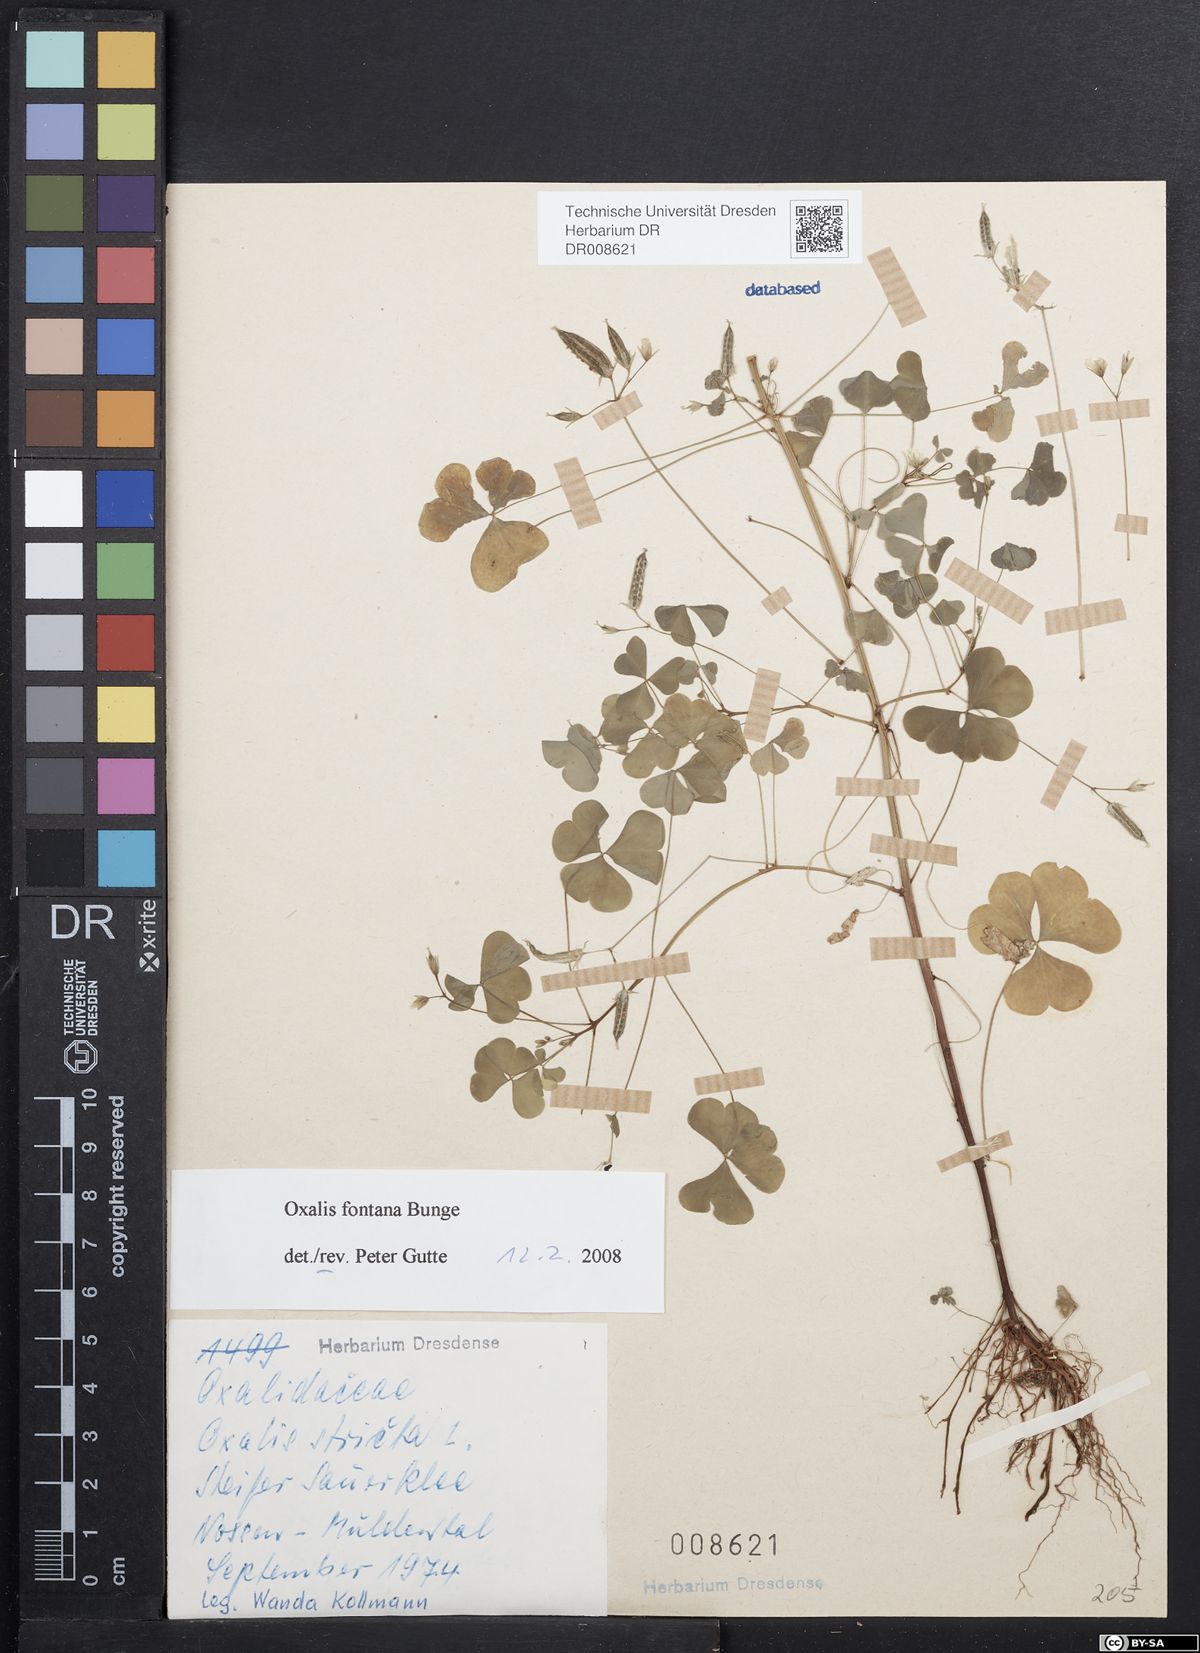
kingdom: Plantae
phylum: Tracheophyta
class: Magnoliopsida
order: Oxalidales
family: Oxalidaceae
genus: Oxalis
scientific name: Oxalis stricta
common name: Upright yellow-sorrel
